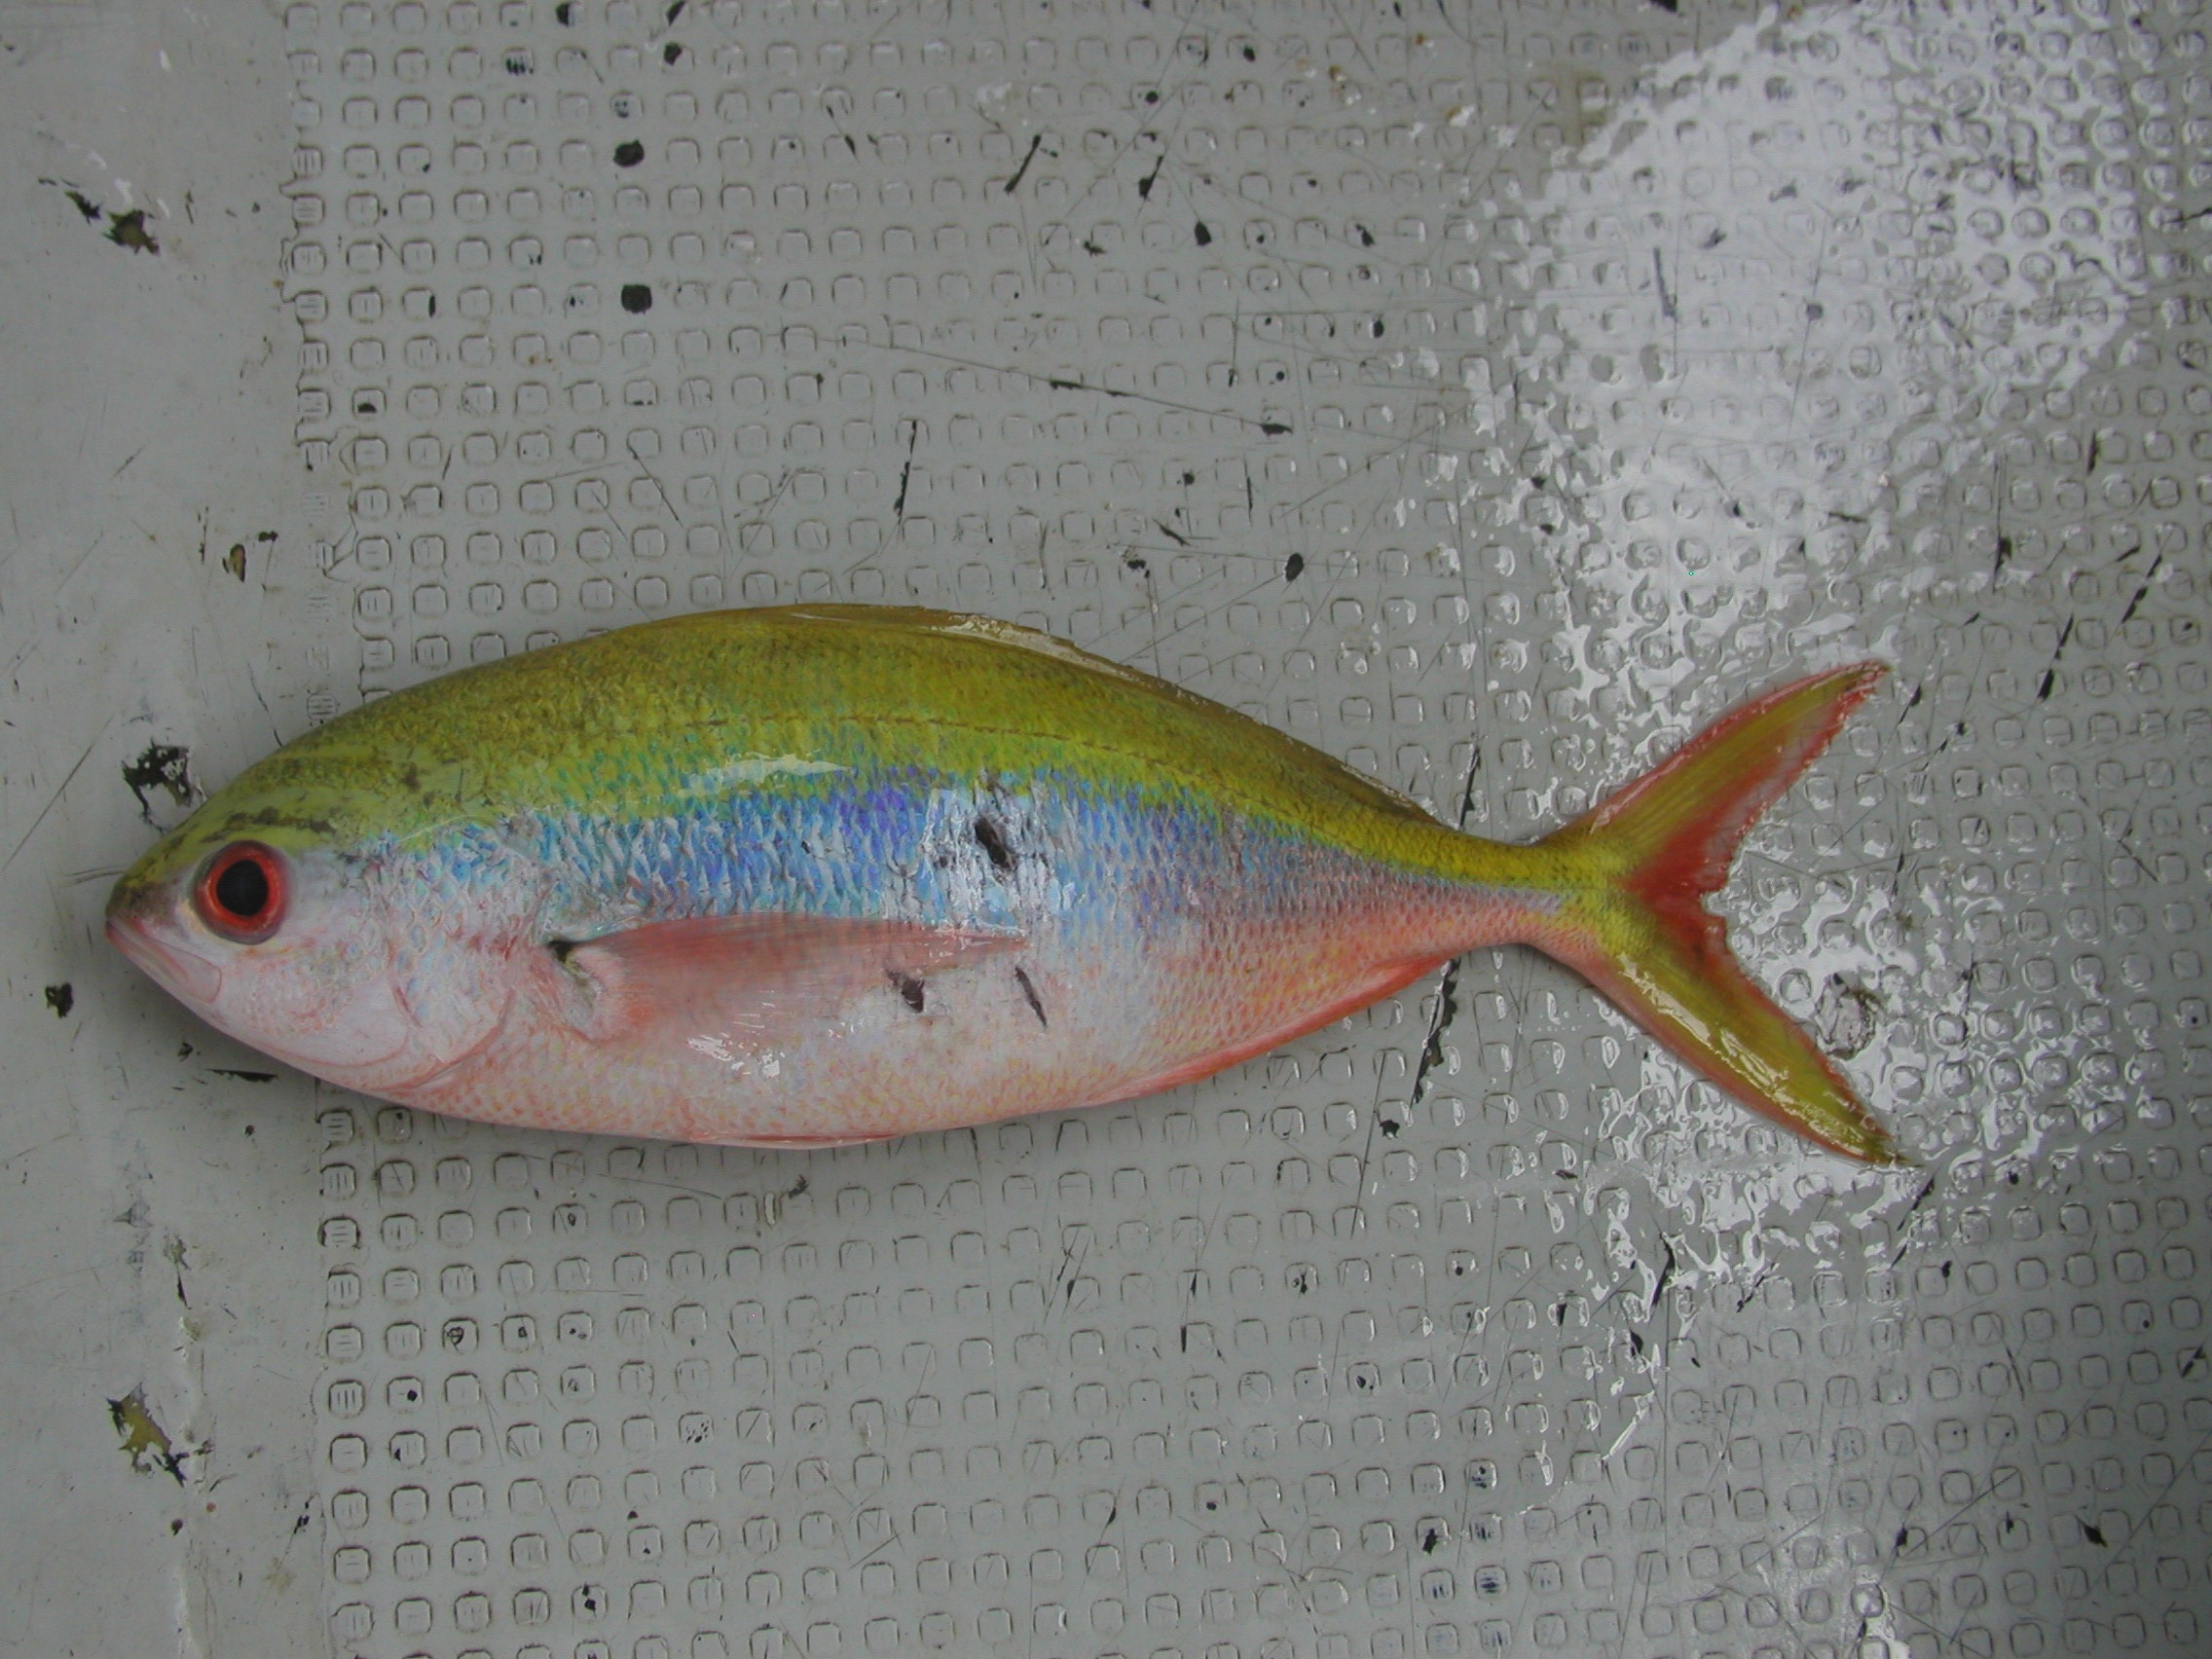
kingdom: Animalia
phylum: Chordata
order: Perciformes
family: Caesionidae
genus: Caesio
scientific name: Caesio xanthonota
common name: Yellowback fusilier
